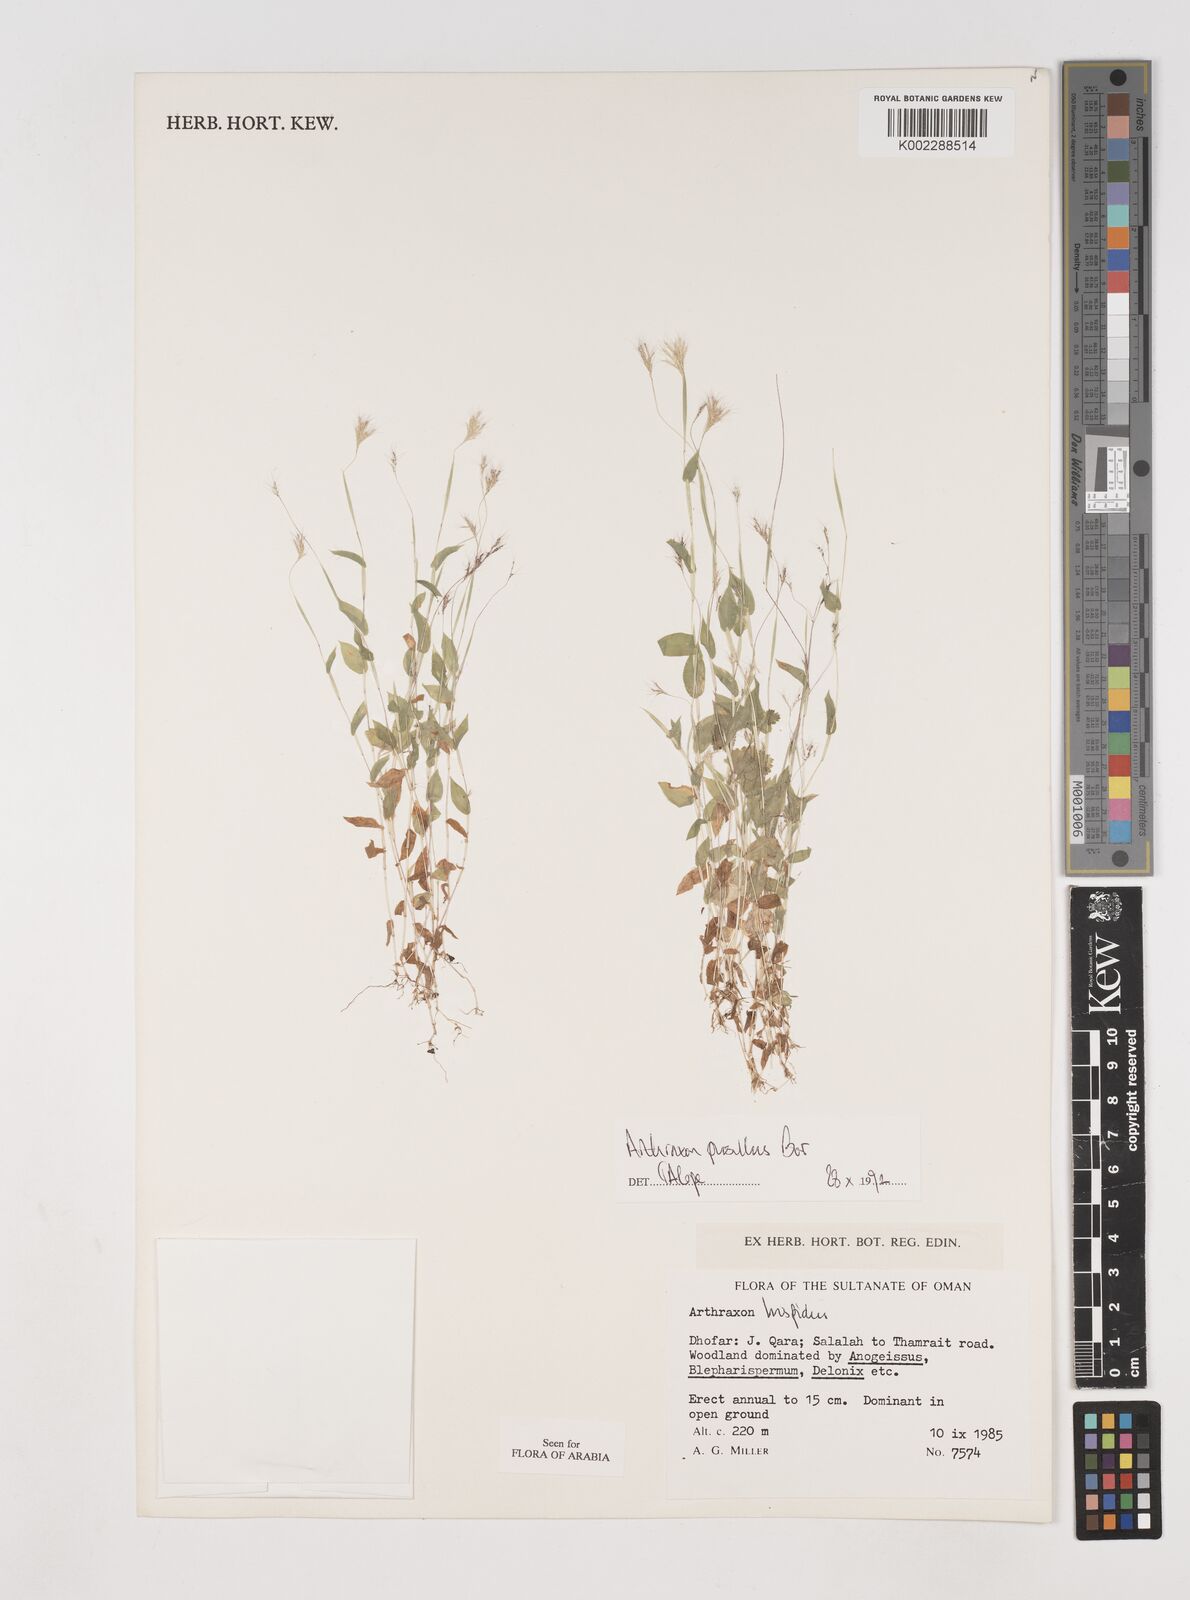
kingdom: Plantae
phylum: Tracheophyta
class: Liliopsida
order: Poales
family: Poaceae
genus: Arthraxon
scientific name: Arthraxon junnarensis
